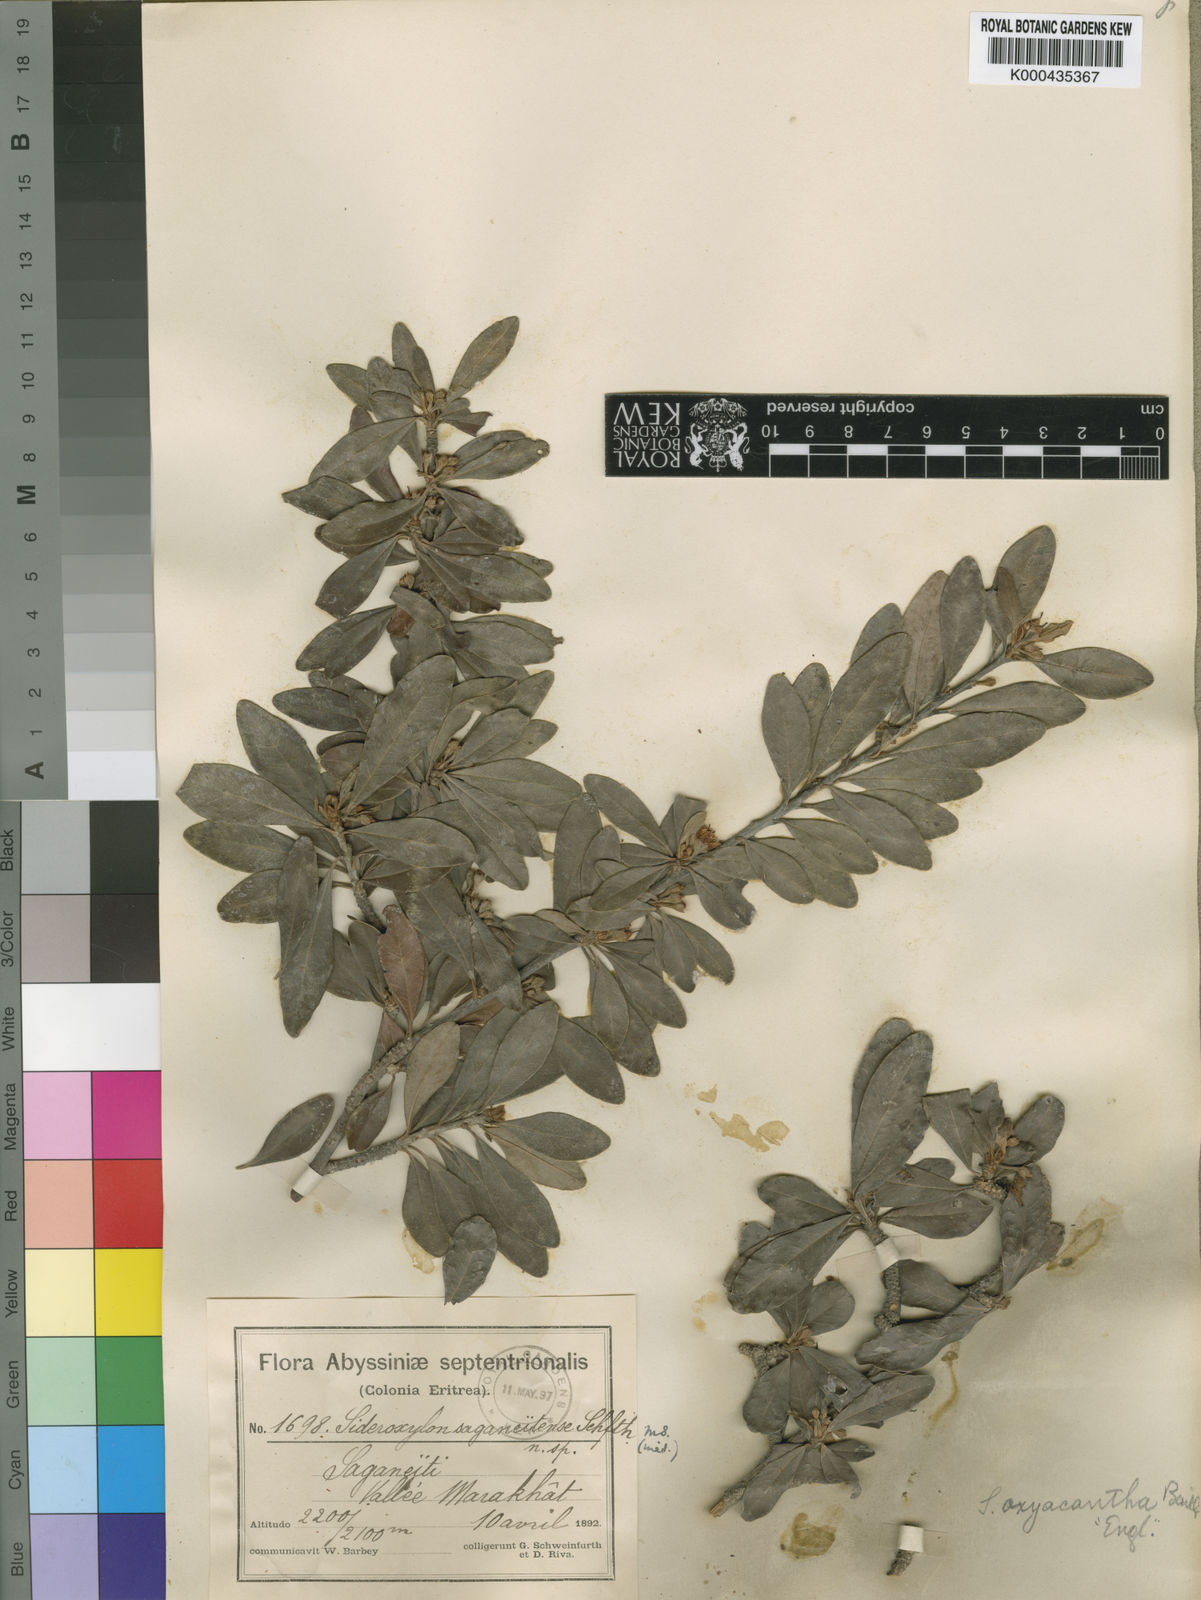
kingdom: Plantae
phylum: Tracheophyta
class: Magnoliopsida
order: Ericales
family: Sapotaceae
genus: Sideroxylon
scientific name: Sideroxylon
